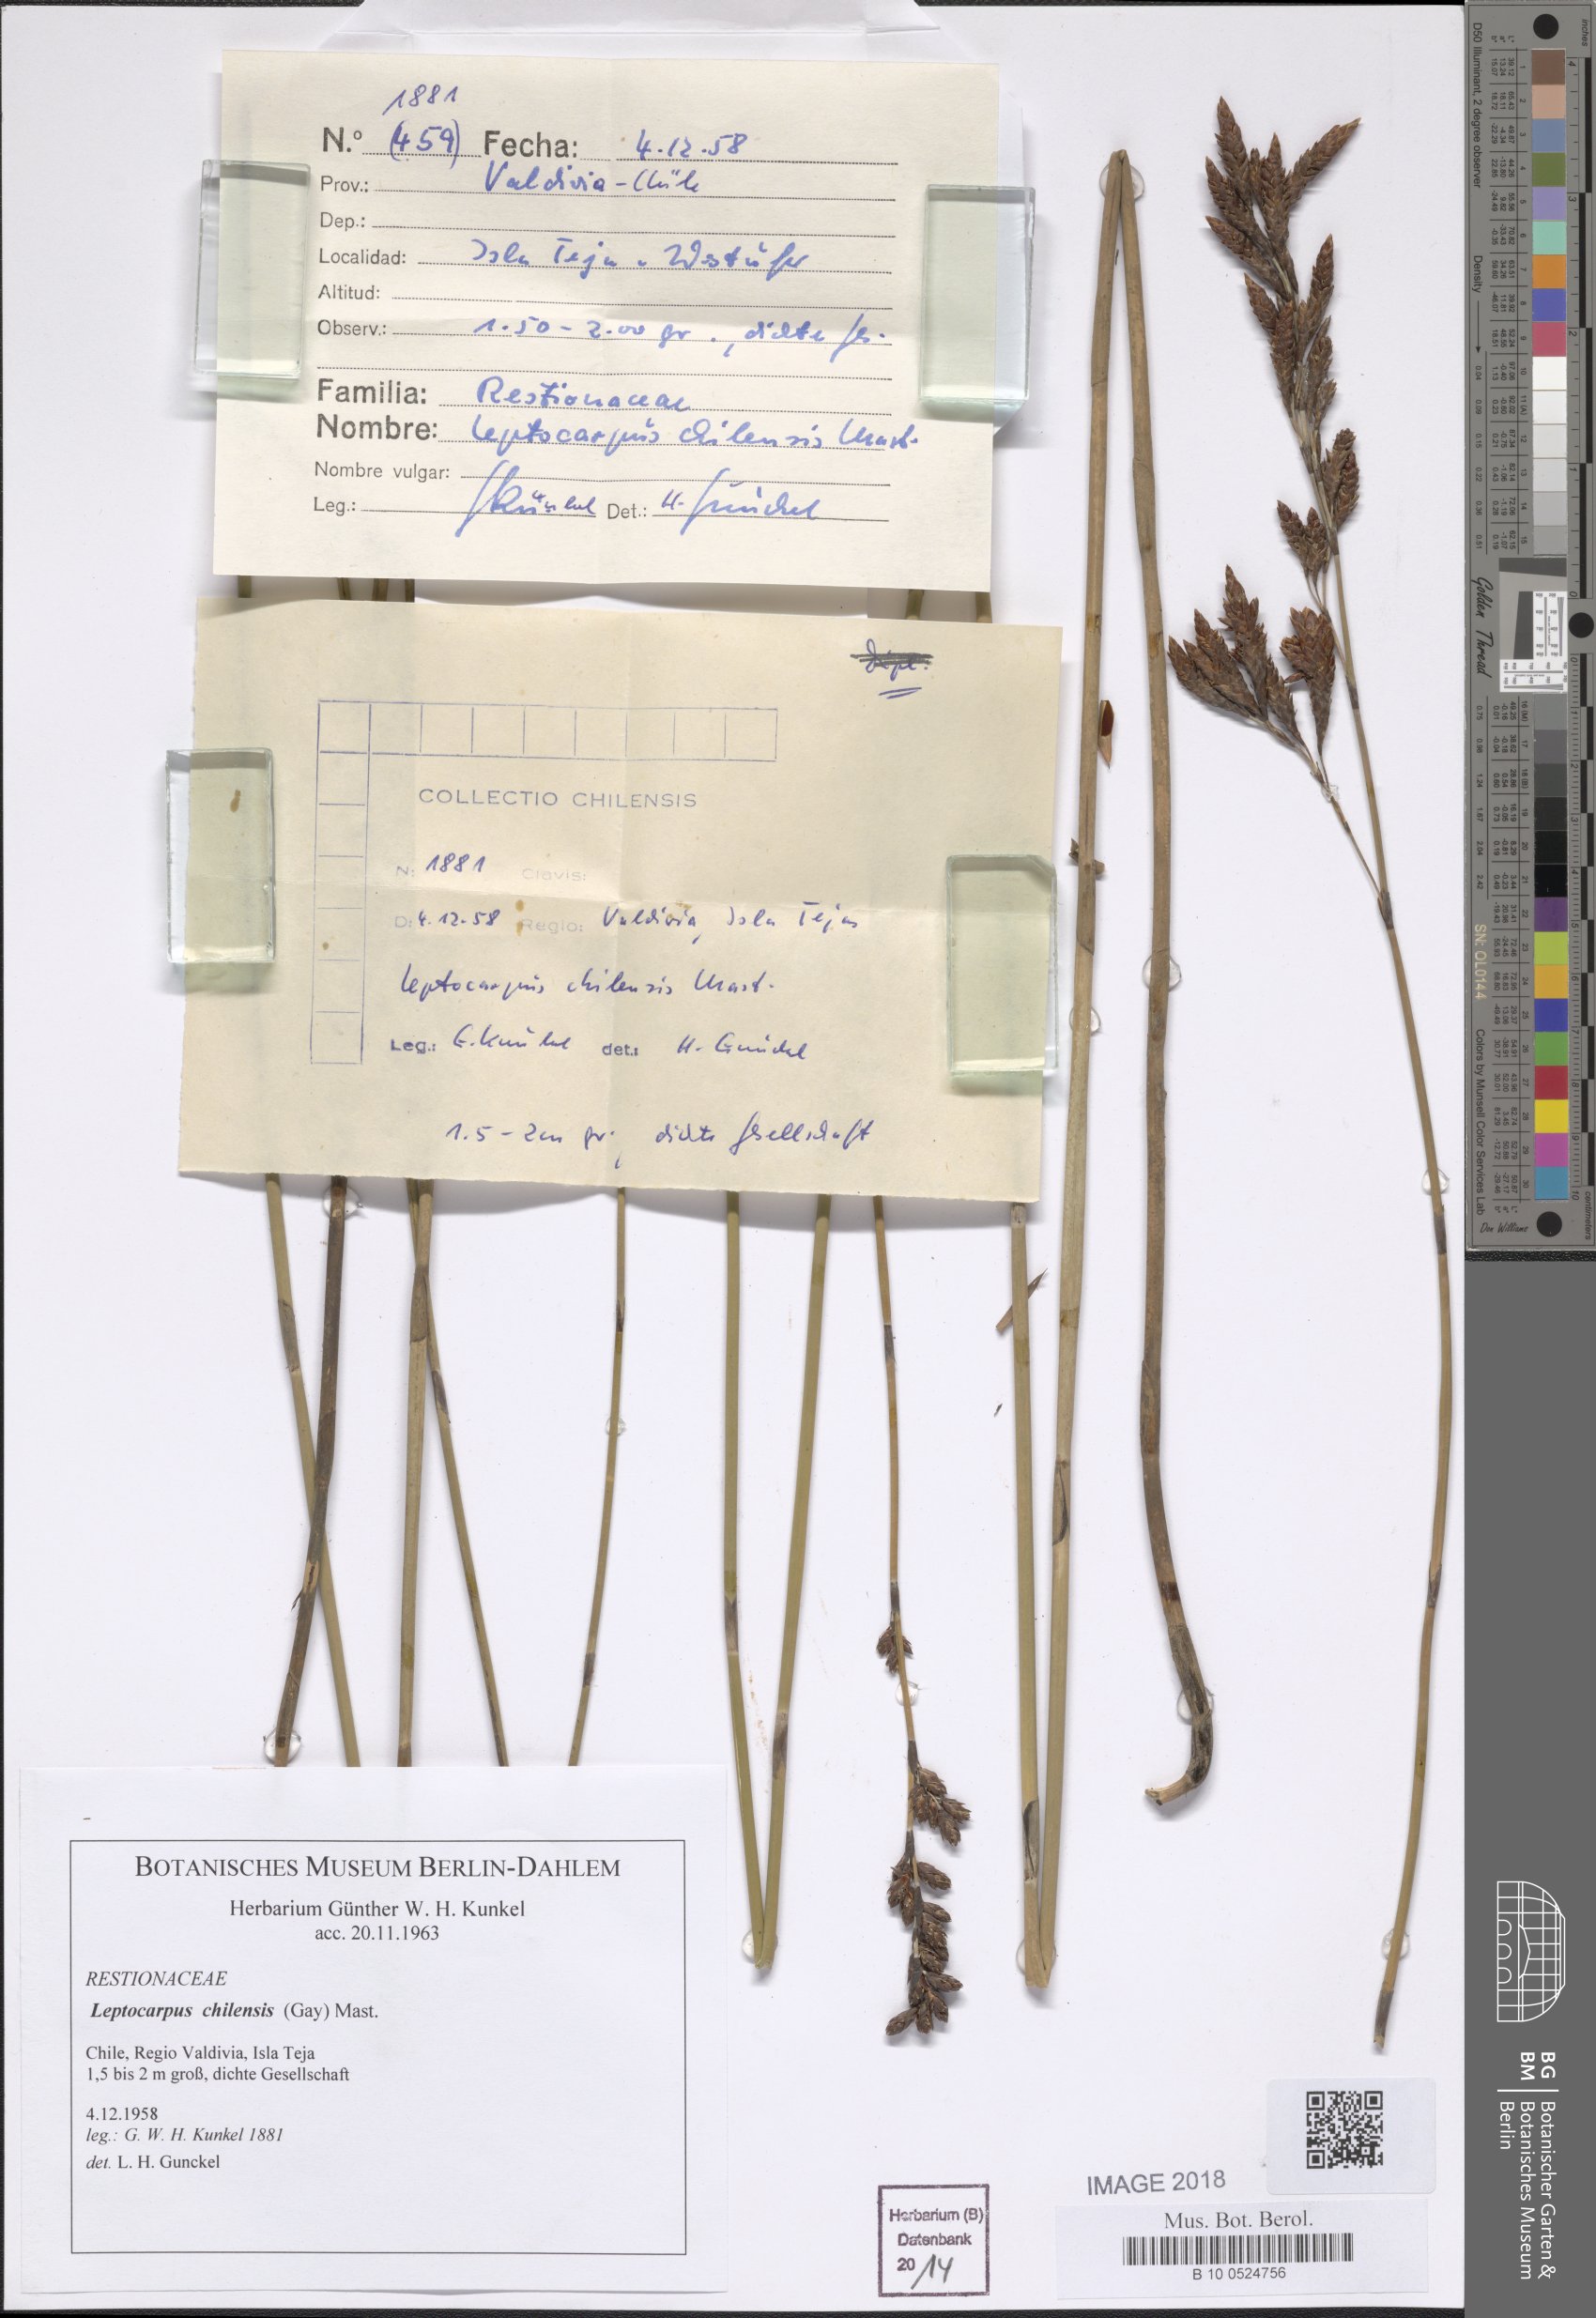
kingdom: Plantae
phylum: Tracheophyta
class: Liliopsida
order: Poales
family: Restionaceae
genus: Apodasmia
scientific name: Apodasmia chilensis
